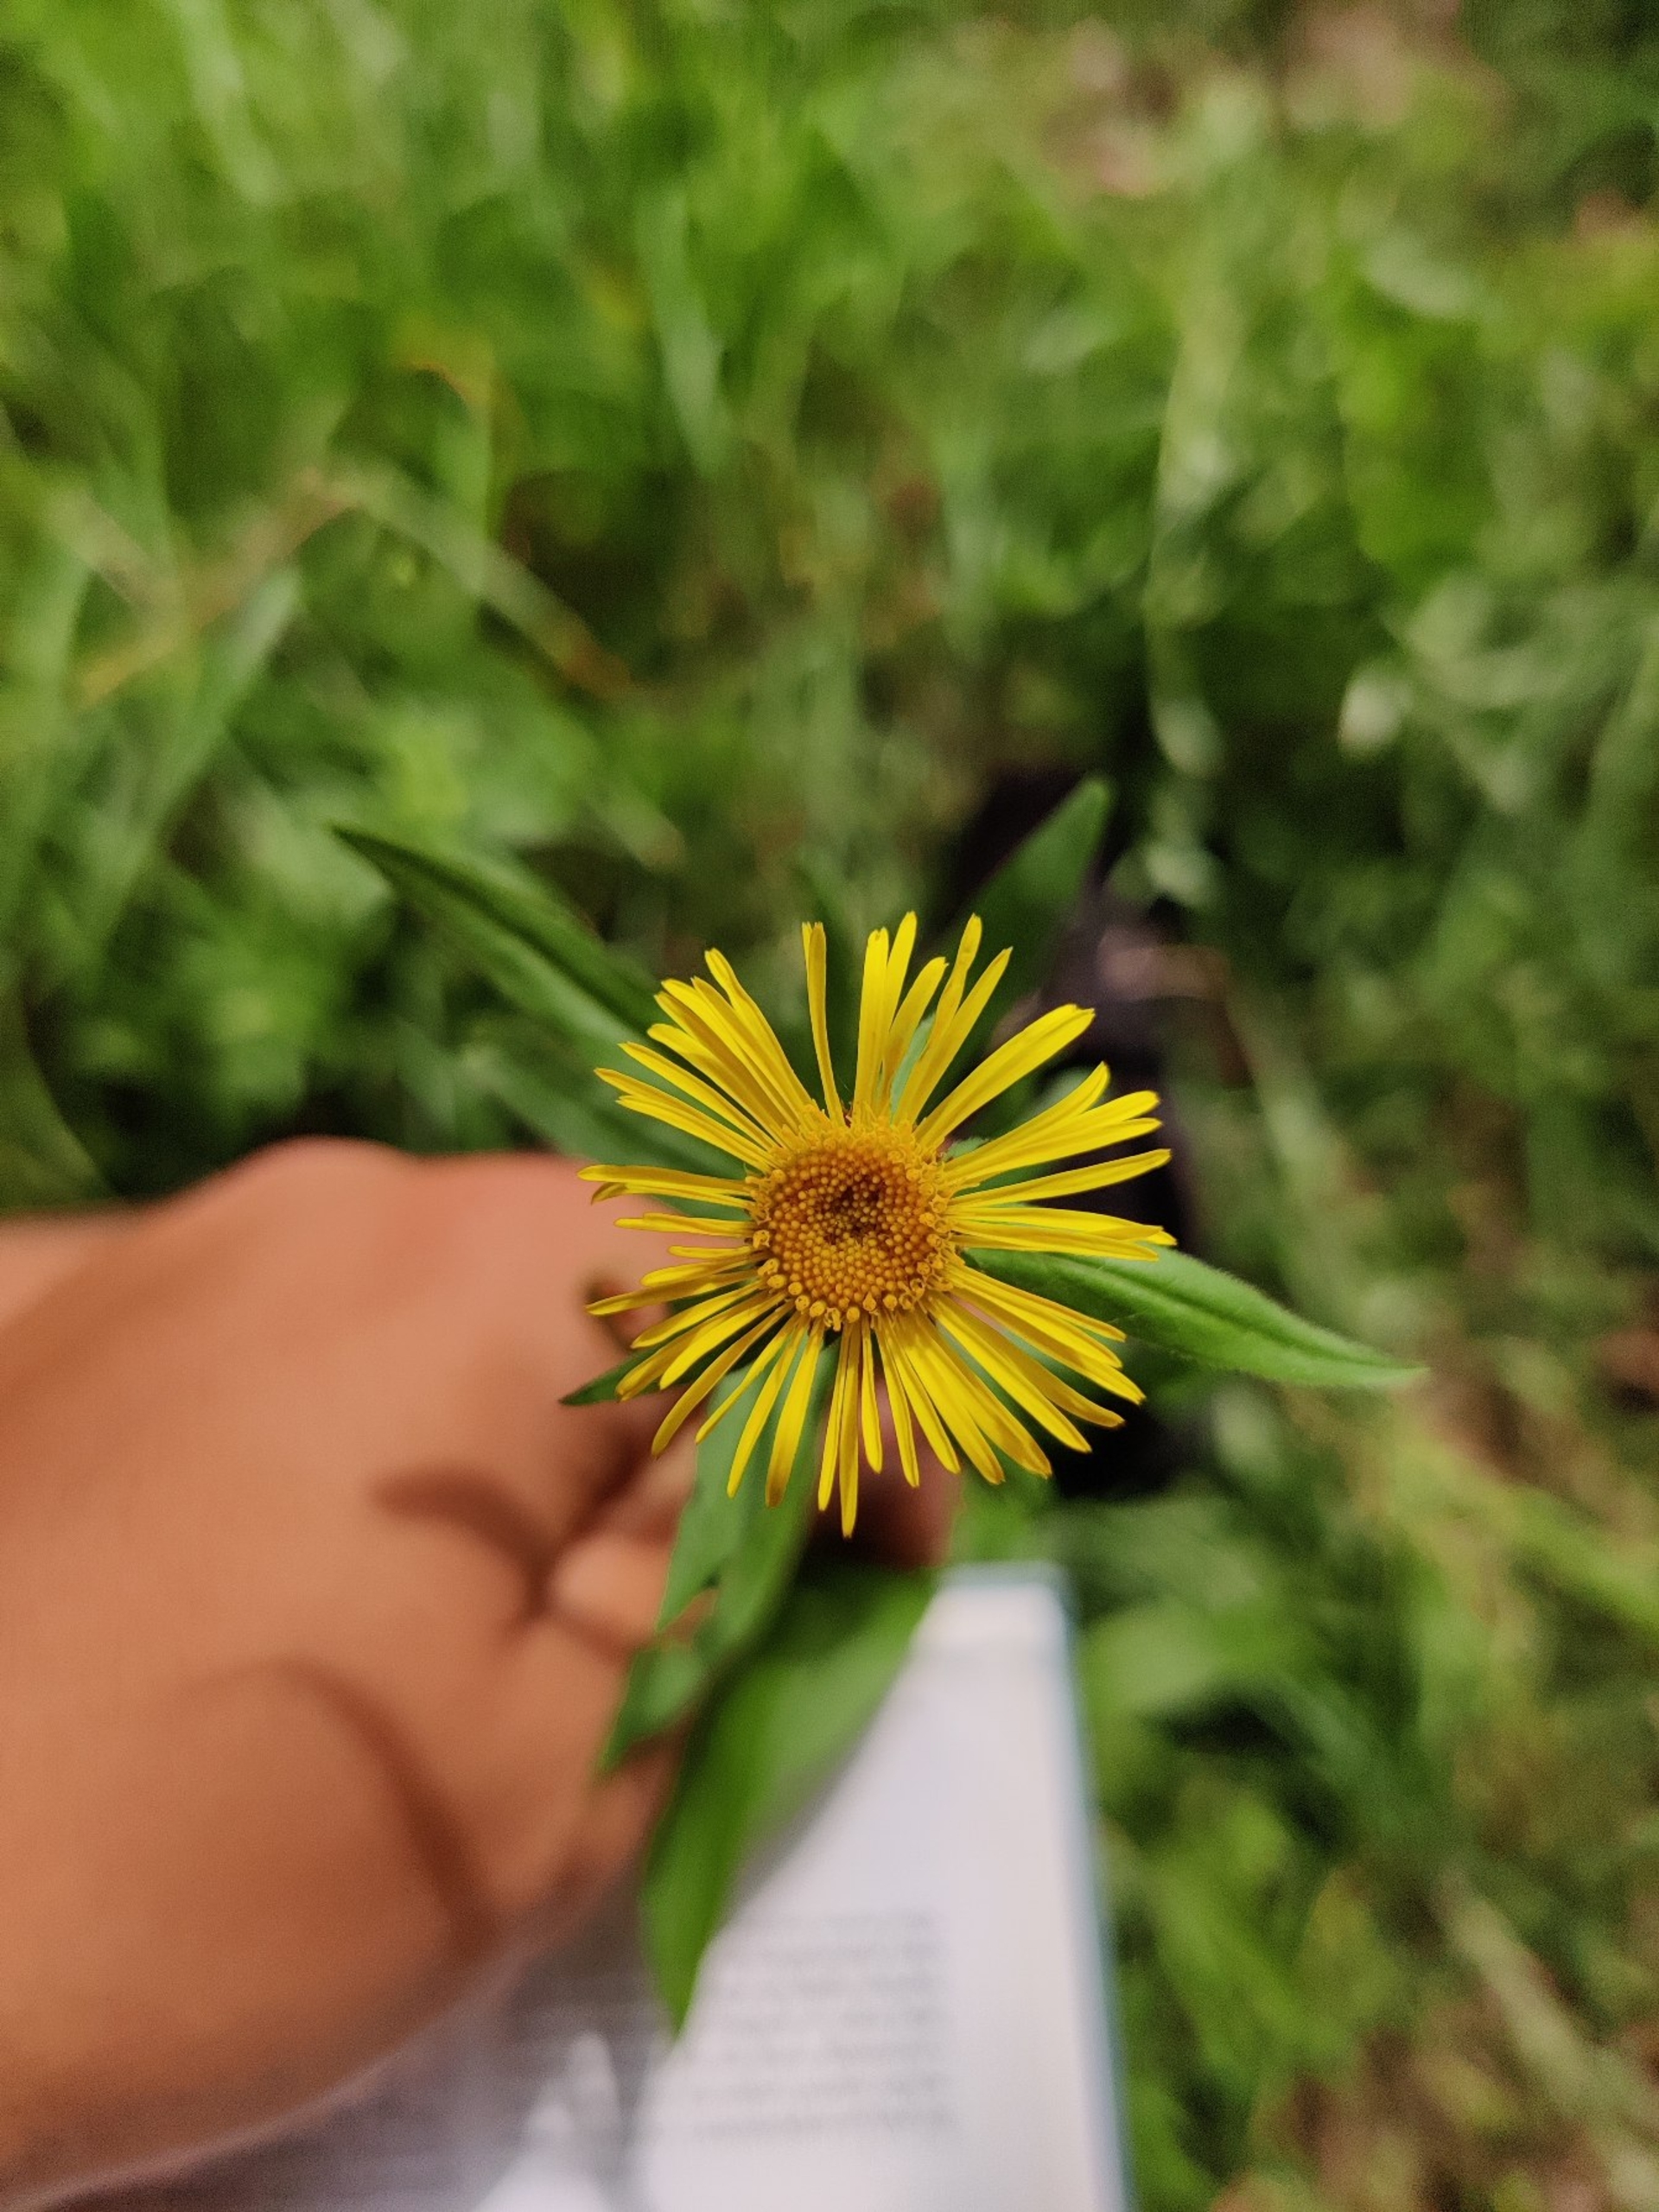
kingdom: Plantae
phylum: Tracheophyta
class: Magnoliopsida
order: Asterales
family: Asteraceae
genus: Pentanema
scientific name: Pentanema salicinum
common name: Pile-alant
